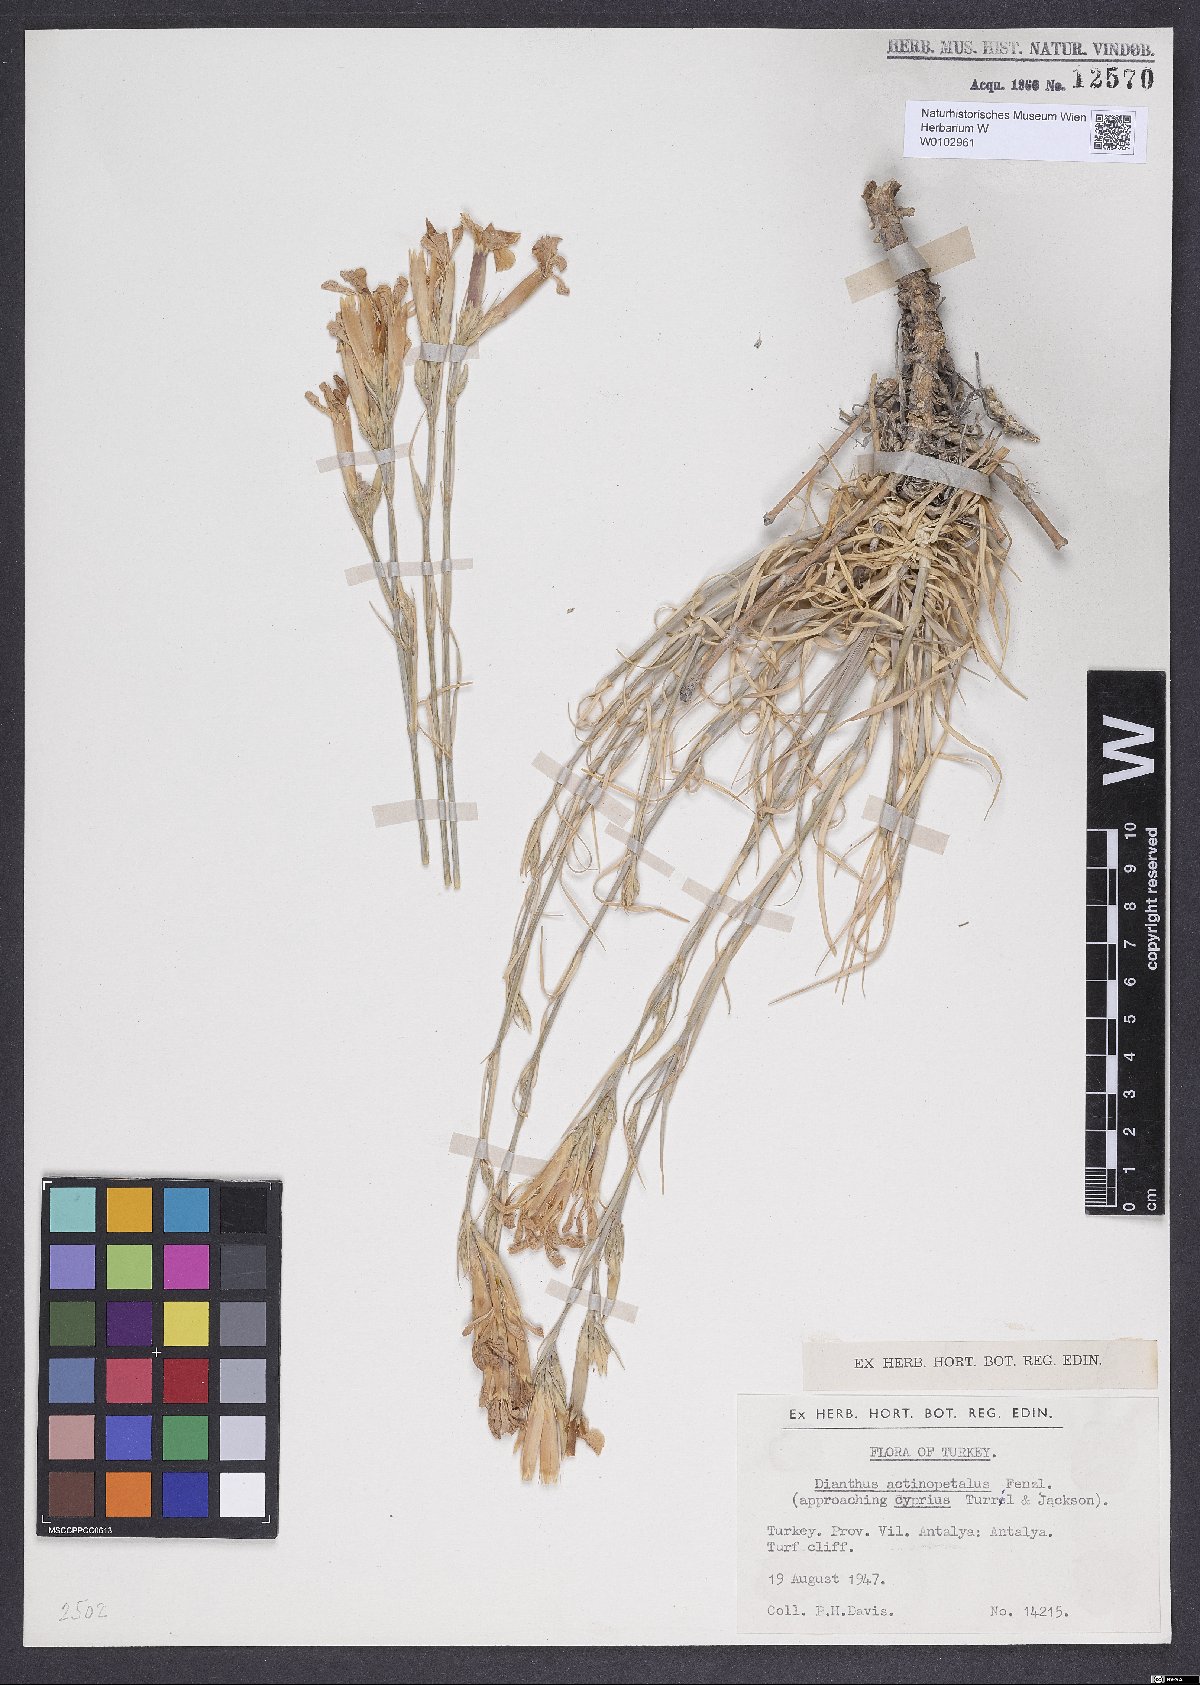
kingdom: Plantae
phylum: Tracheophyta
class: Magnoliopsida
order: Caryophyllales
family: Caryophyllaceae
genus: Dianthus
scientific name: Dianthus elegans
